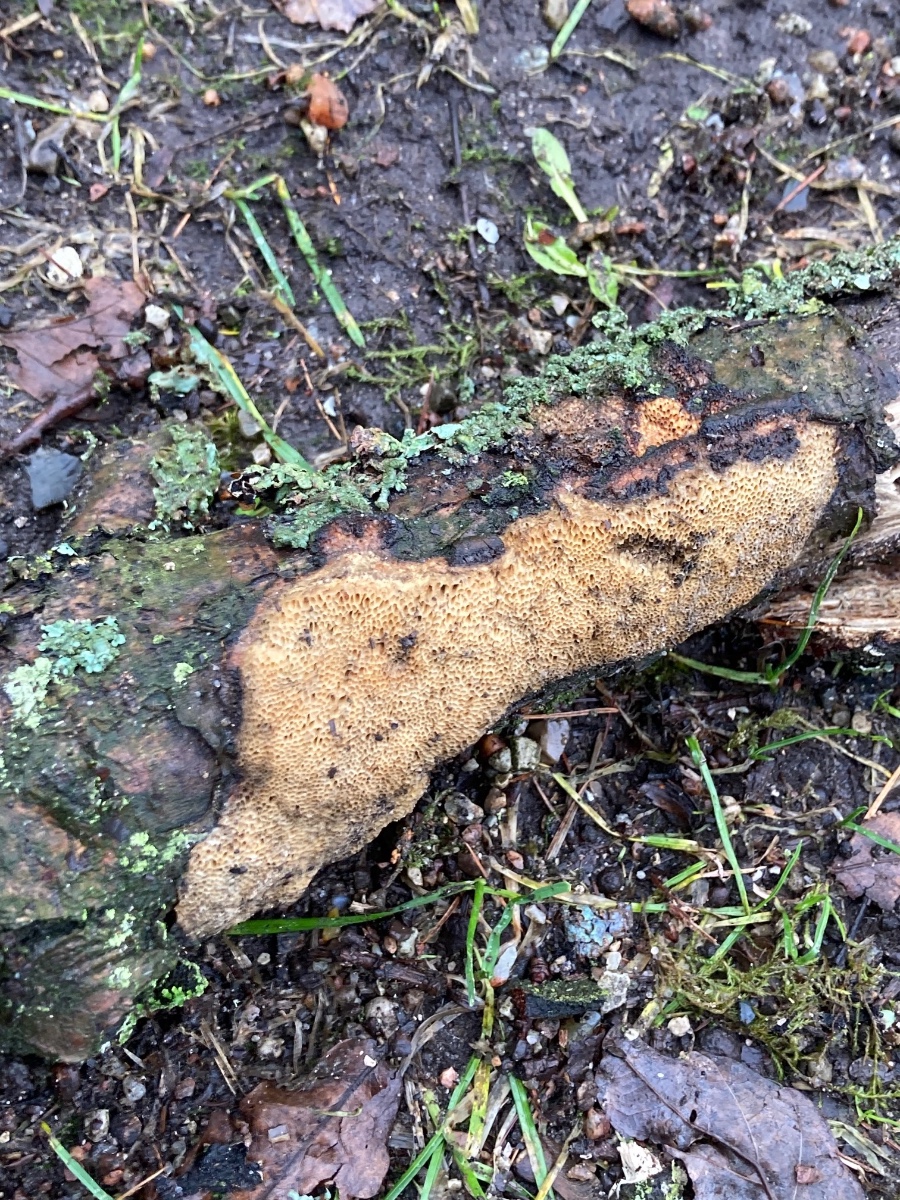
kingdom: Fungi
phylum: Basidiomycota
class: Agaricomycetes
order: Polyporales
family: Polyporaceae
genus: Szczepkamyces
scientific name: Szczepkamyces campestris
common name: hasselporesvamp
